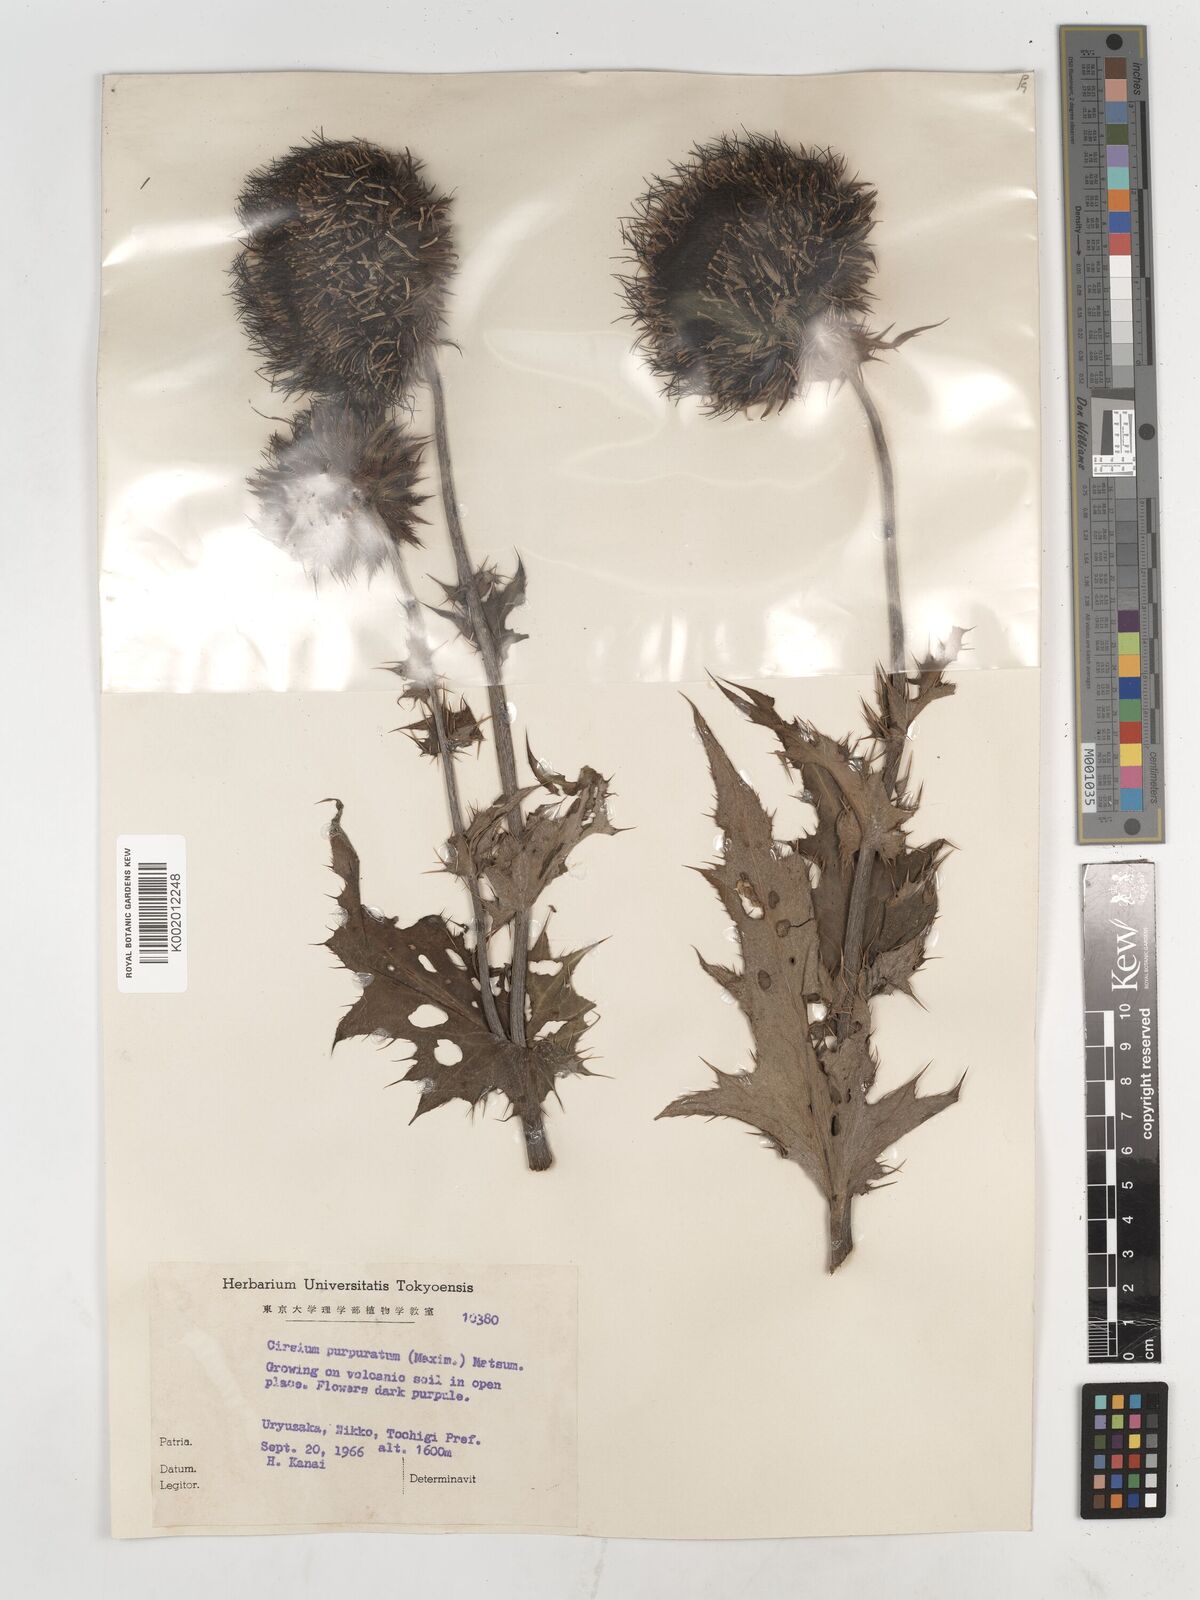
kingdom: Plantae
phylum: Tracheophyta
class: Magnoliopsida
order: Asterales
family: Asteraceae
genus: Cirsium
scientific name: Cirsium purpuratum
